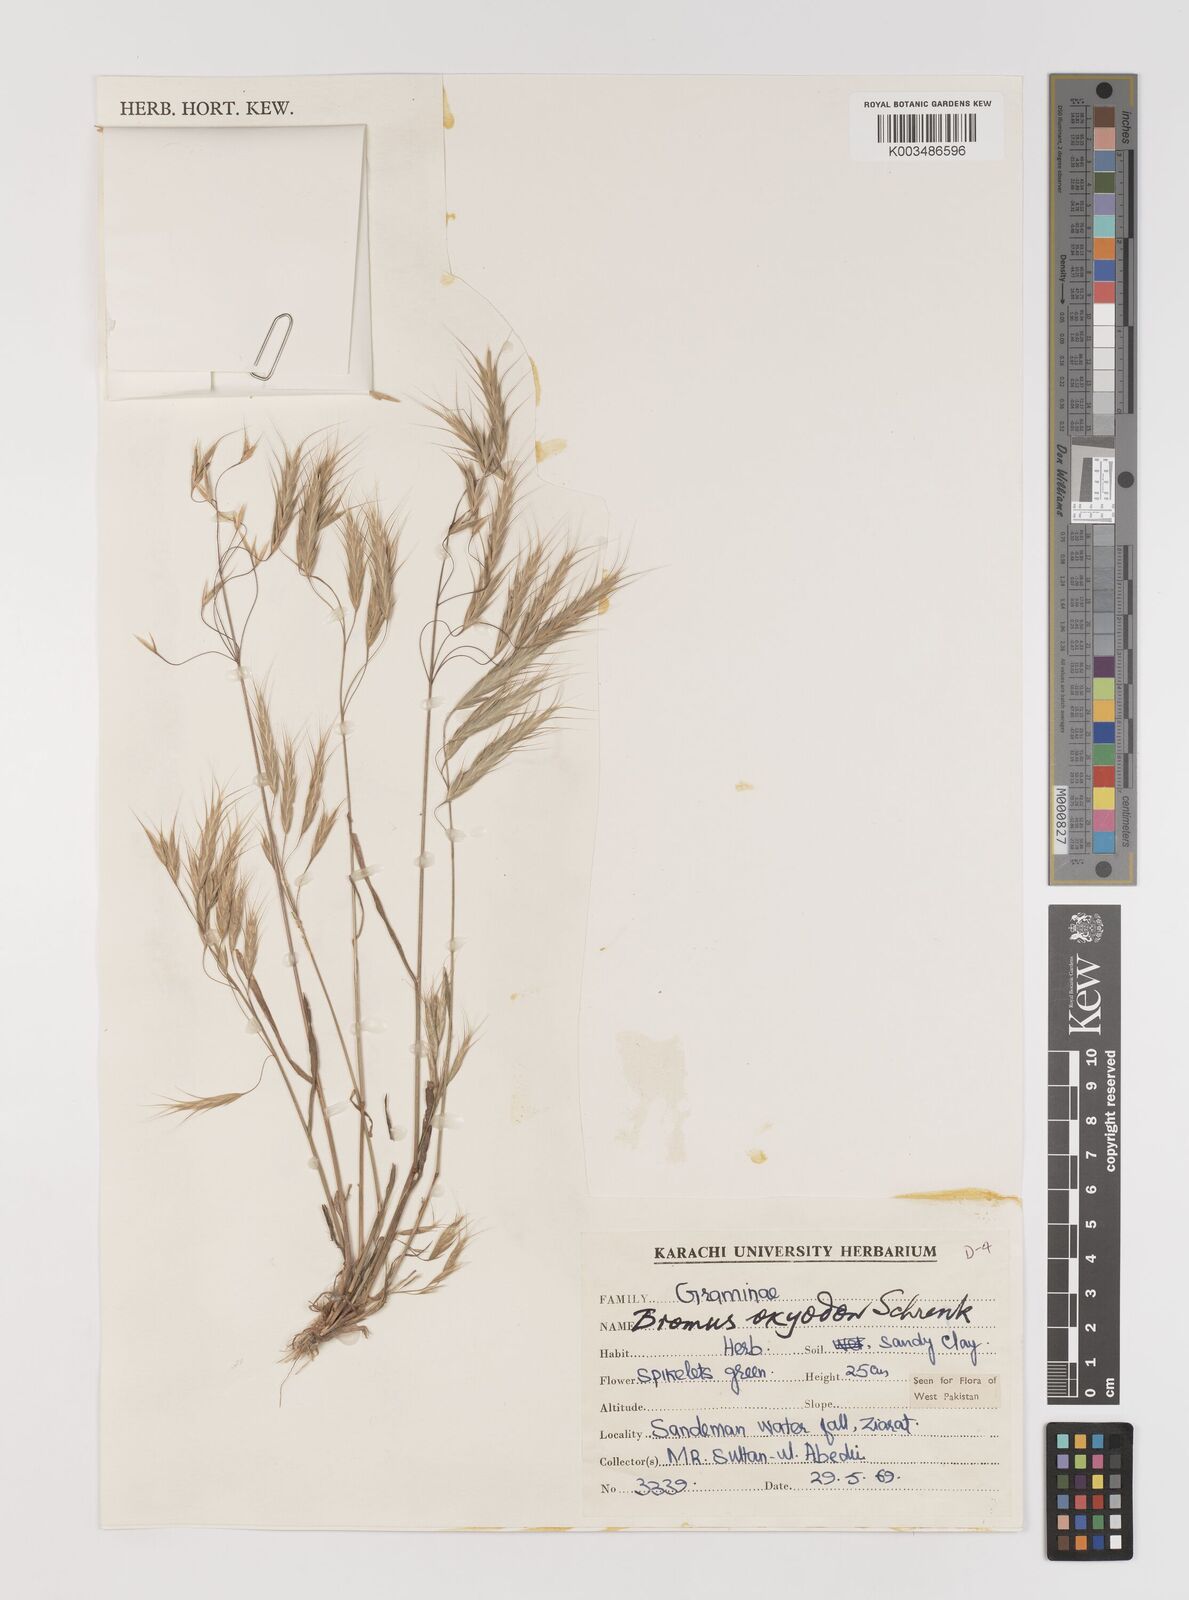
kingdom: Plantae
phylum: Tracheophyta
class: Liliopsida
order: Poales
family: Poaceae
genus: Bromus
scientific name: Bromus oxyodon
